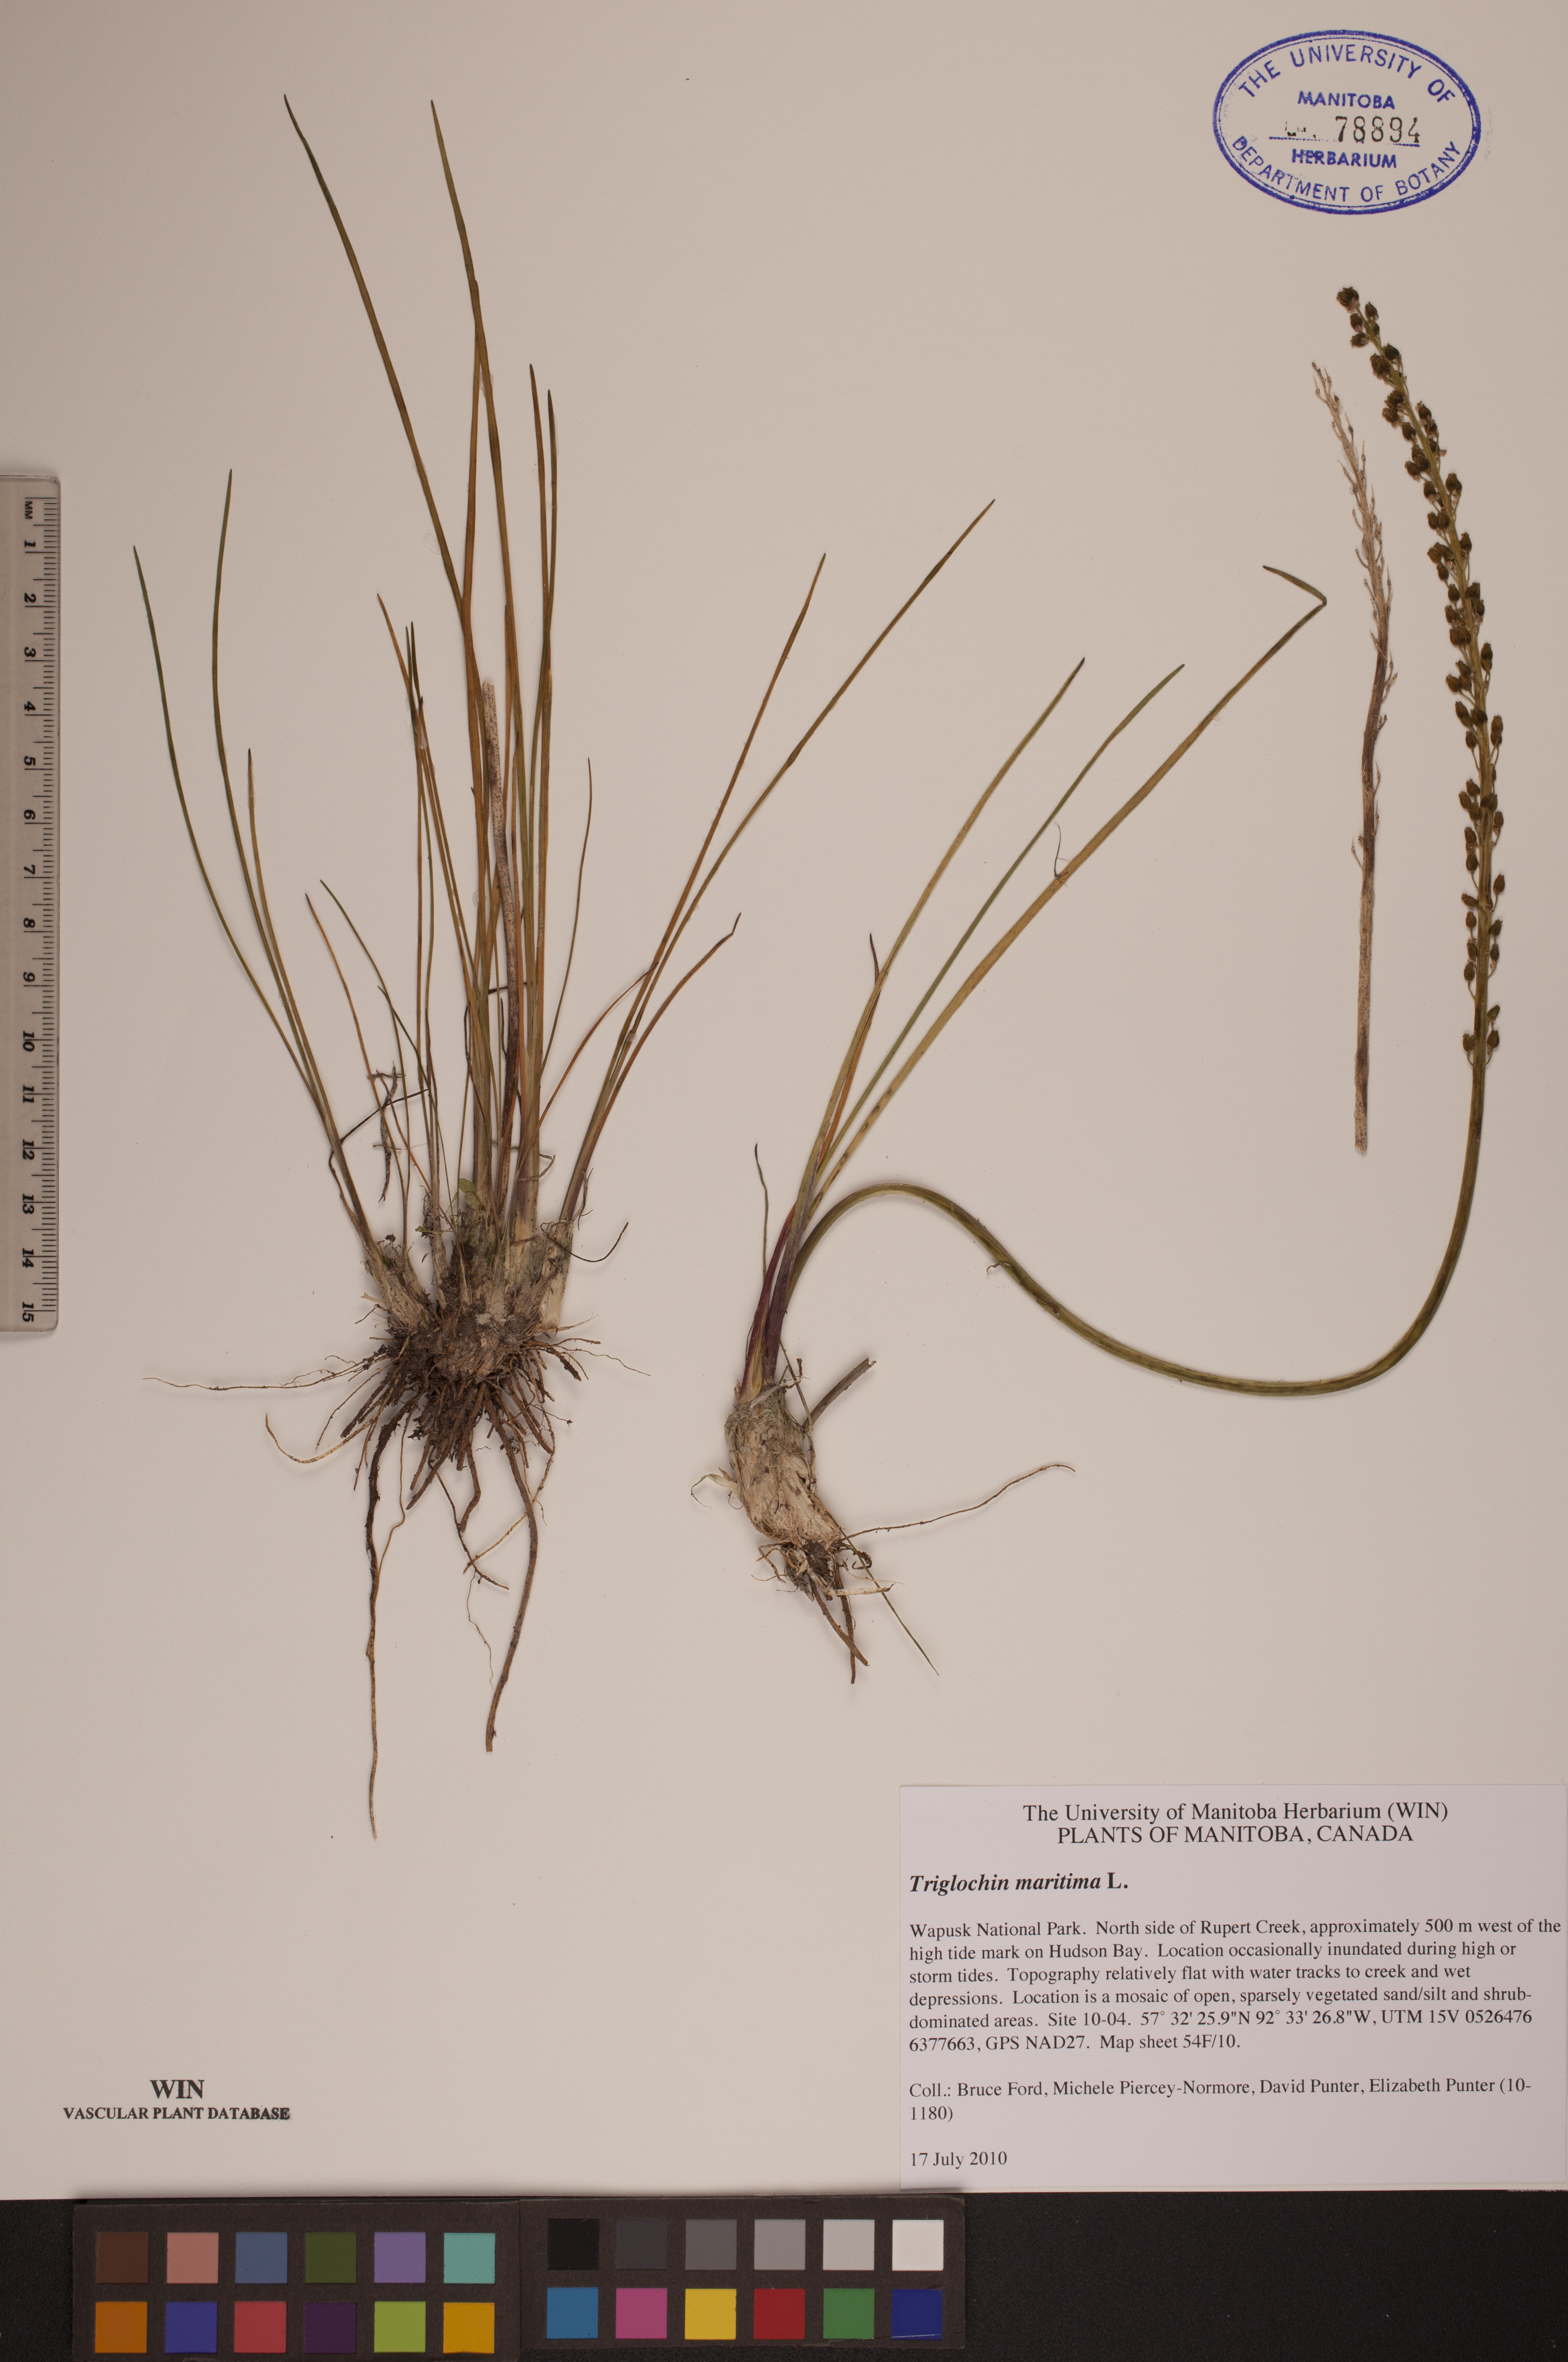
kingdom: Plantae
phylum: Tracheophyta
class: Liliopsida
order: Alismatales
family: Juncaginaceae
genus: Triglochin
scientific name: Triglochin maritima
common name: Sea arrowgrass
